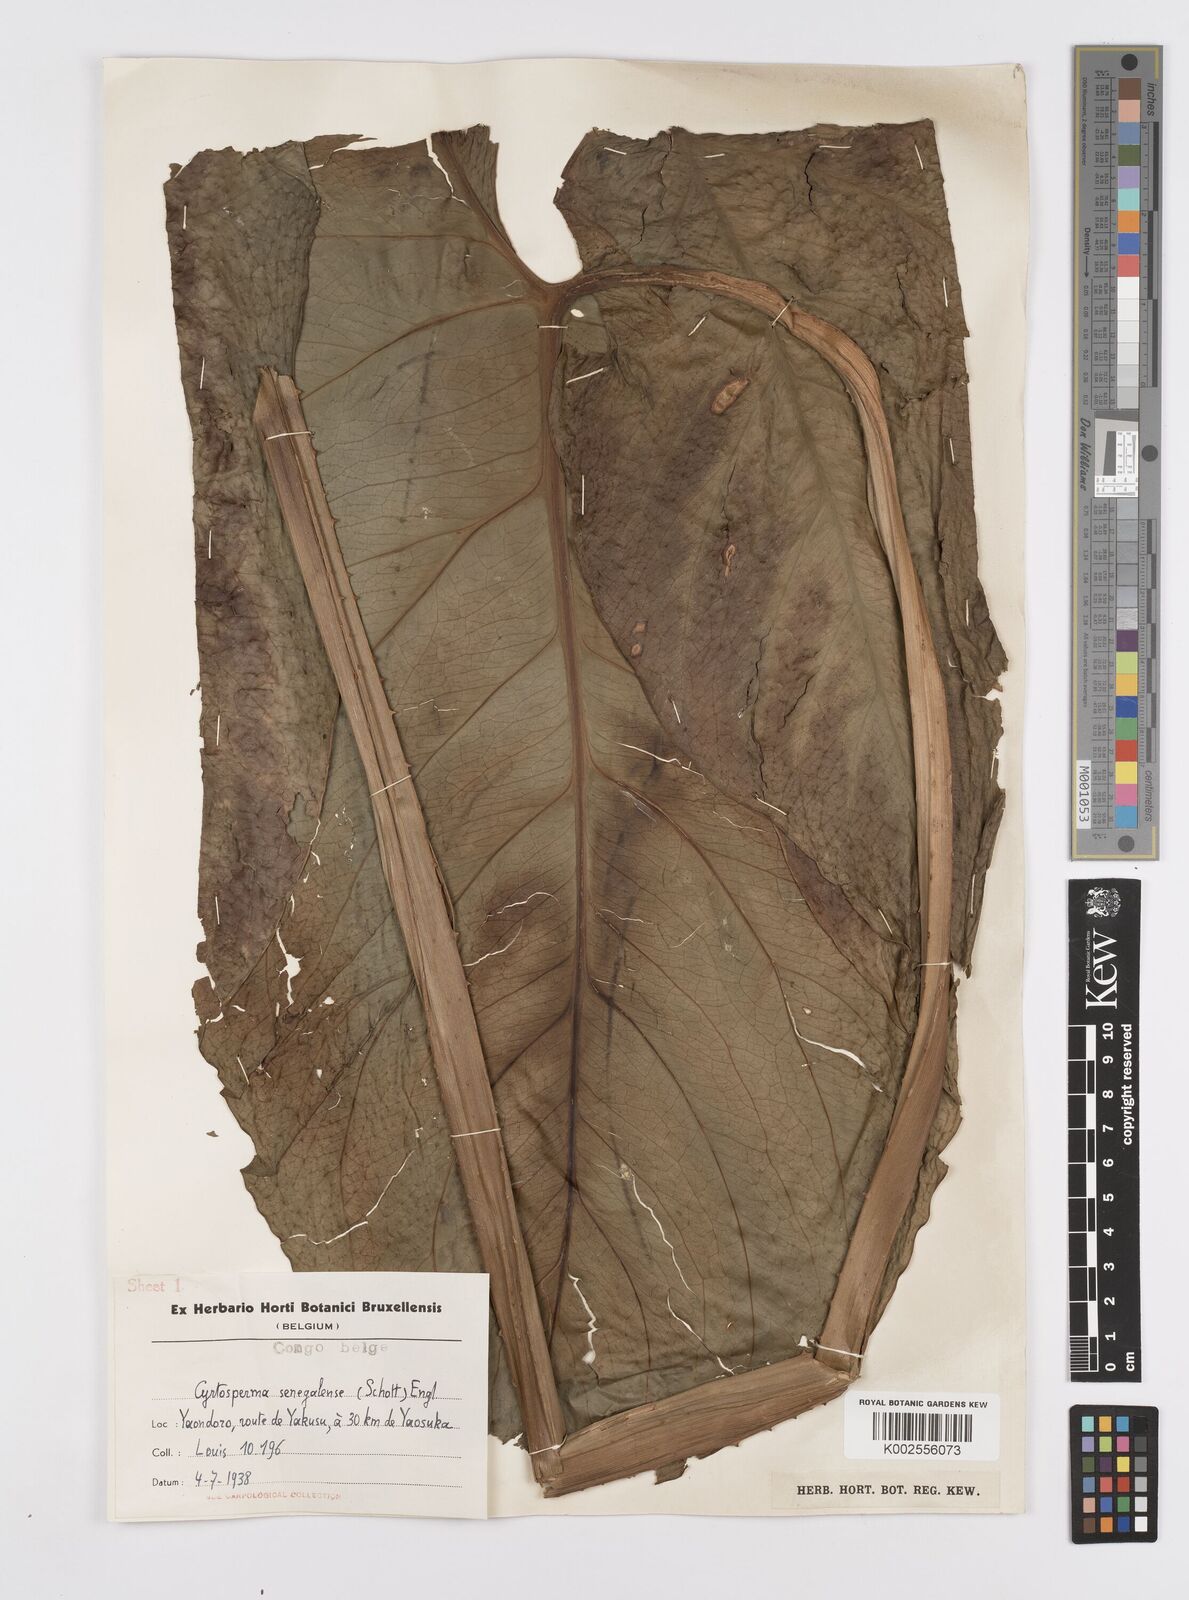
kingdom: Plantae
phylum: Tracheophyta
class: Liliopsida
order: Alismatales
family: Araceae
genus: Lasimorpha
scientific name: Lasimorpha senegalensis
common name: Swamp arum
